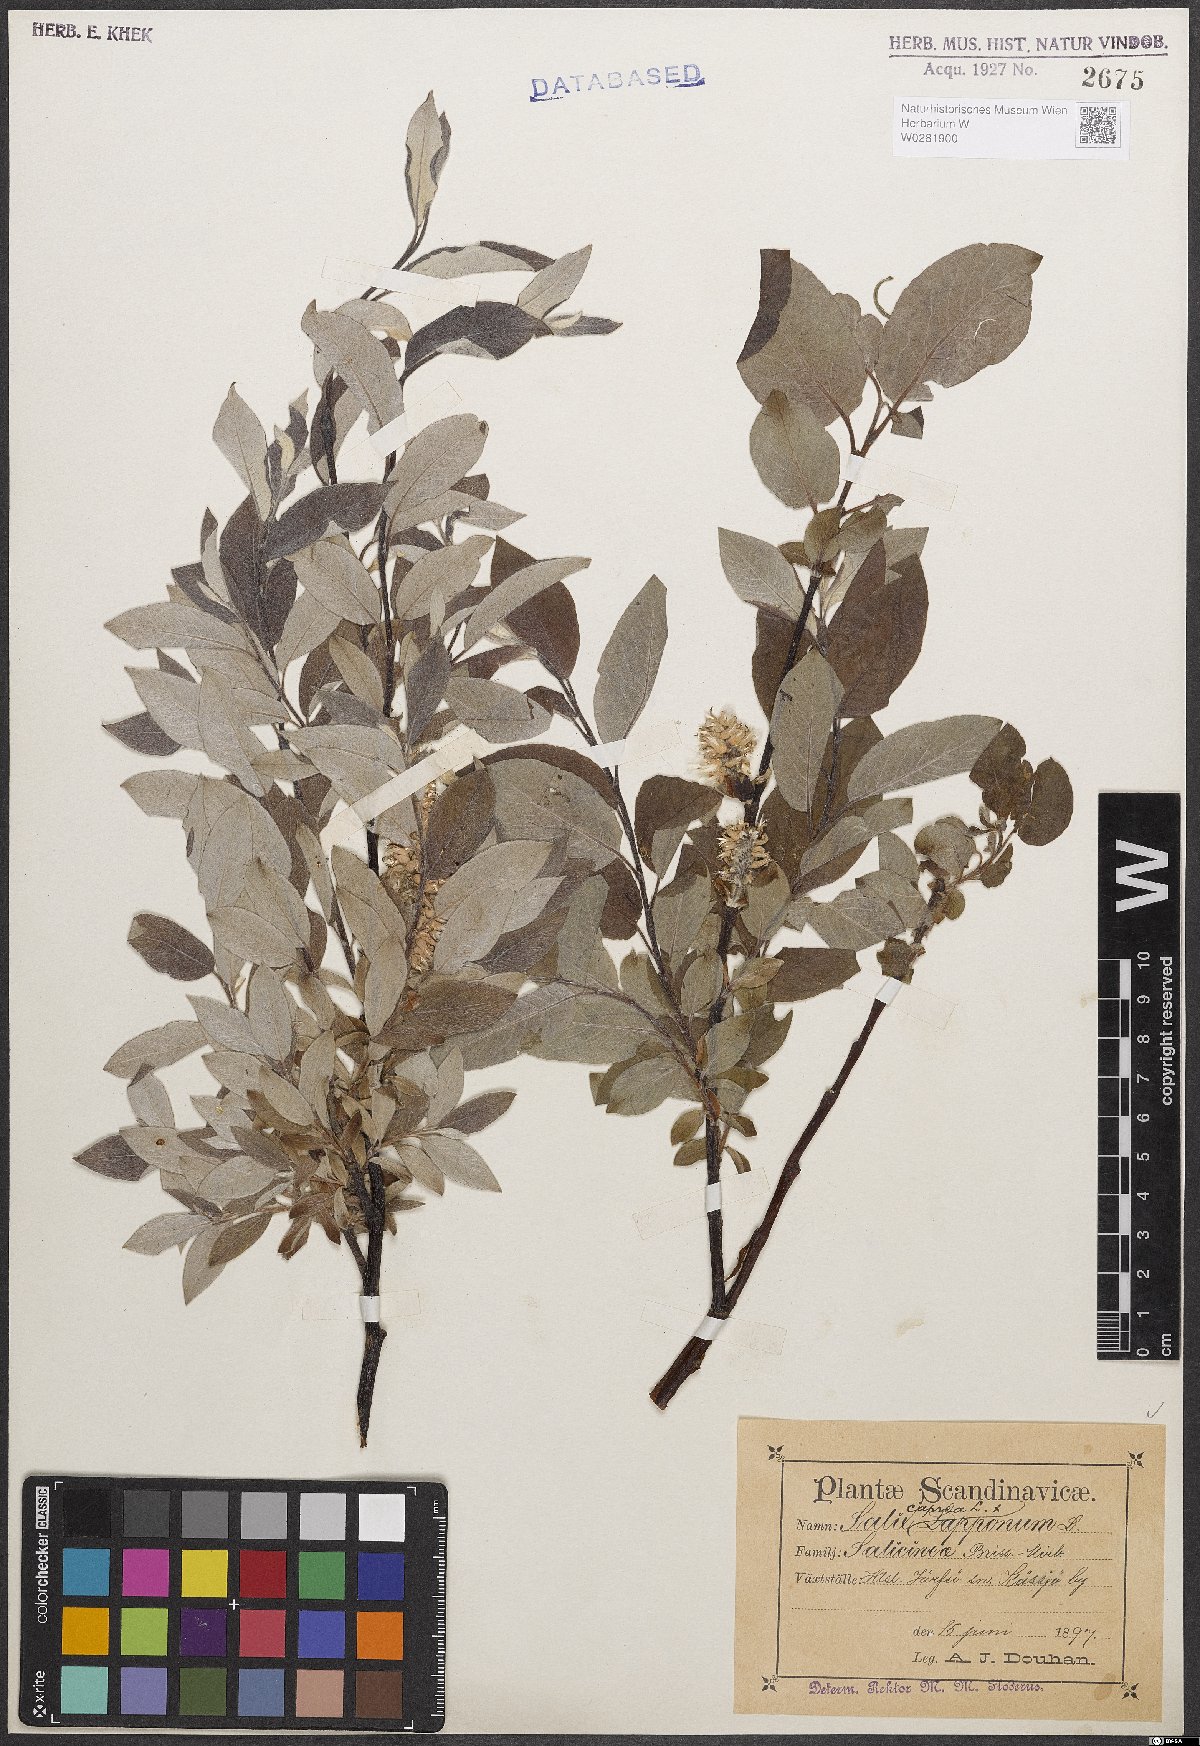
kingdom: Plantae
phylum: Tracheophyta
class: Magnoliopsida
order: Malpighiales
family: Salicaceae
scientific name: Salicaceae
